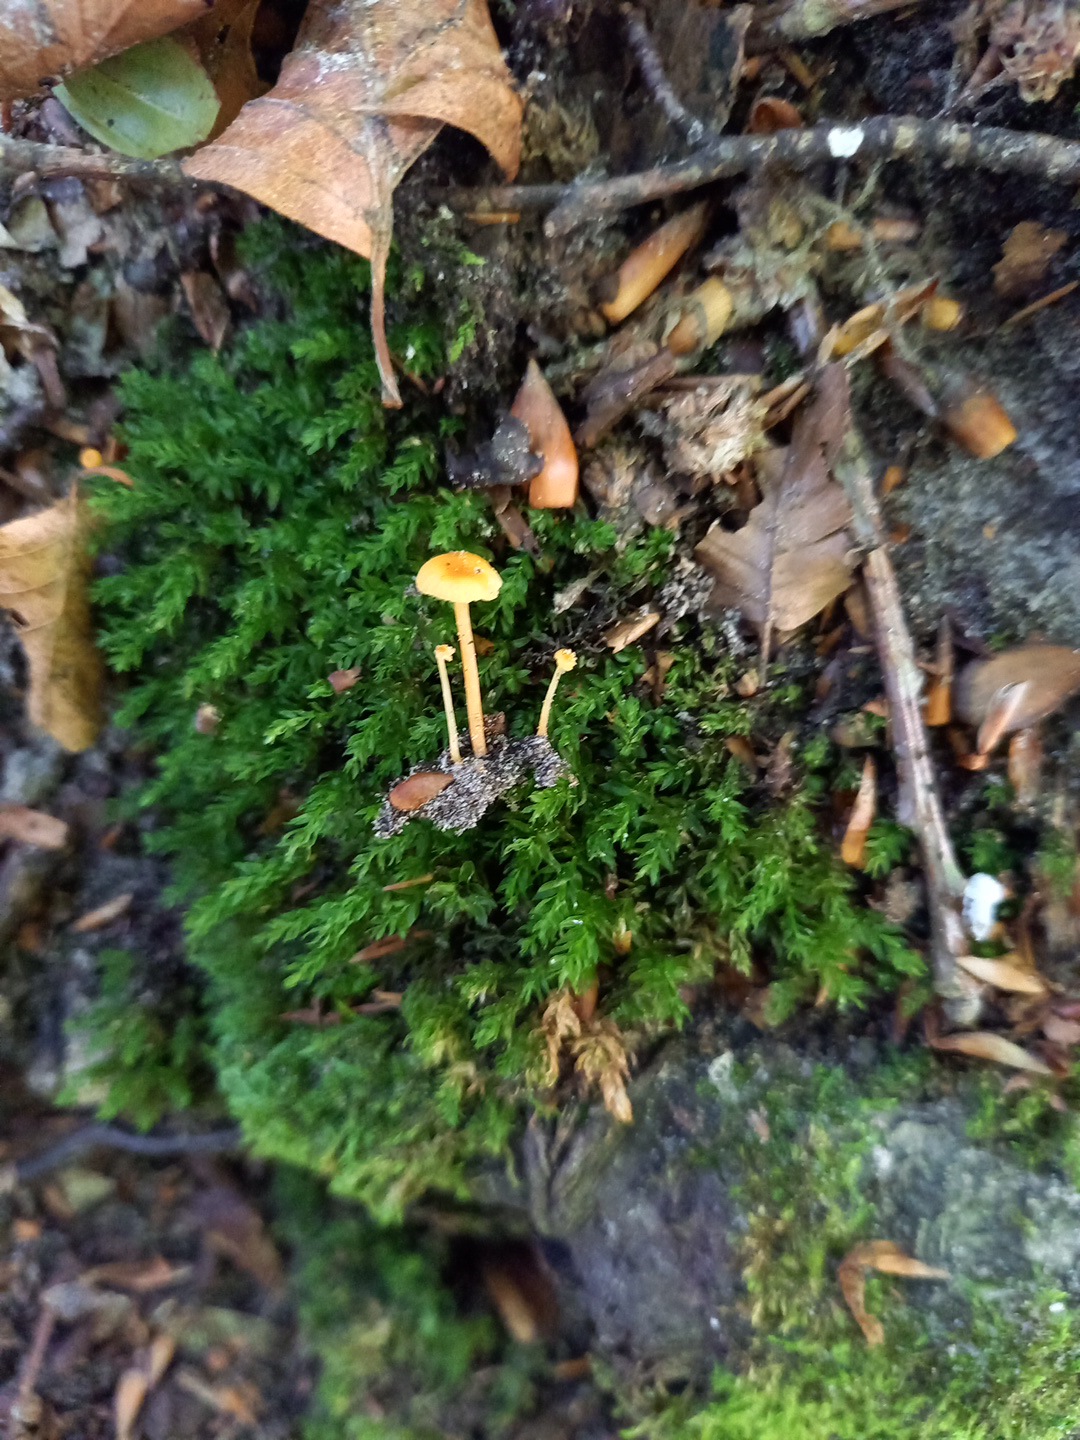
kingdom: Fungi
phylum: Basidiomycota
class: Agaricomycetes
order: Hymenochaetales
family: Rickenellaceae
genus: Rickenella
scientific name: Rickenella fibula
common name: orange mosnavlehat
